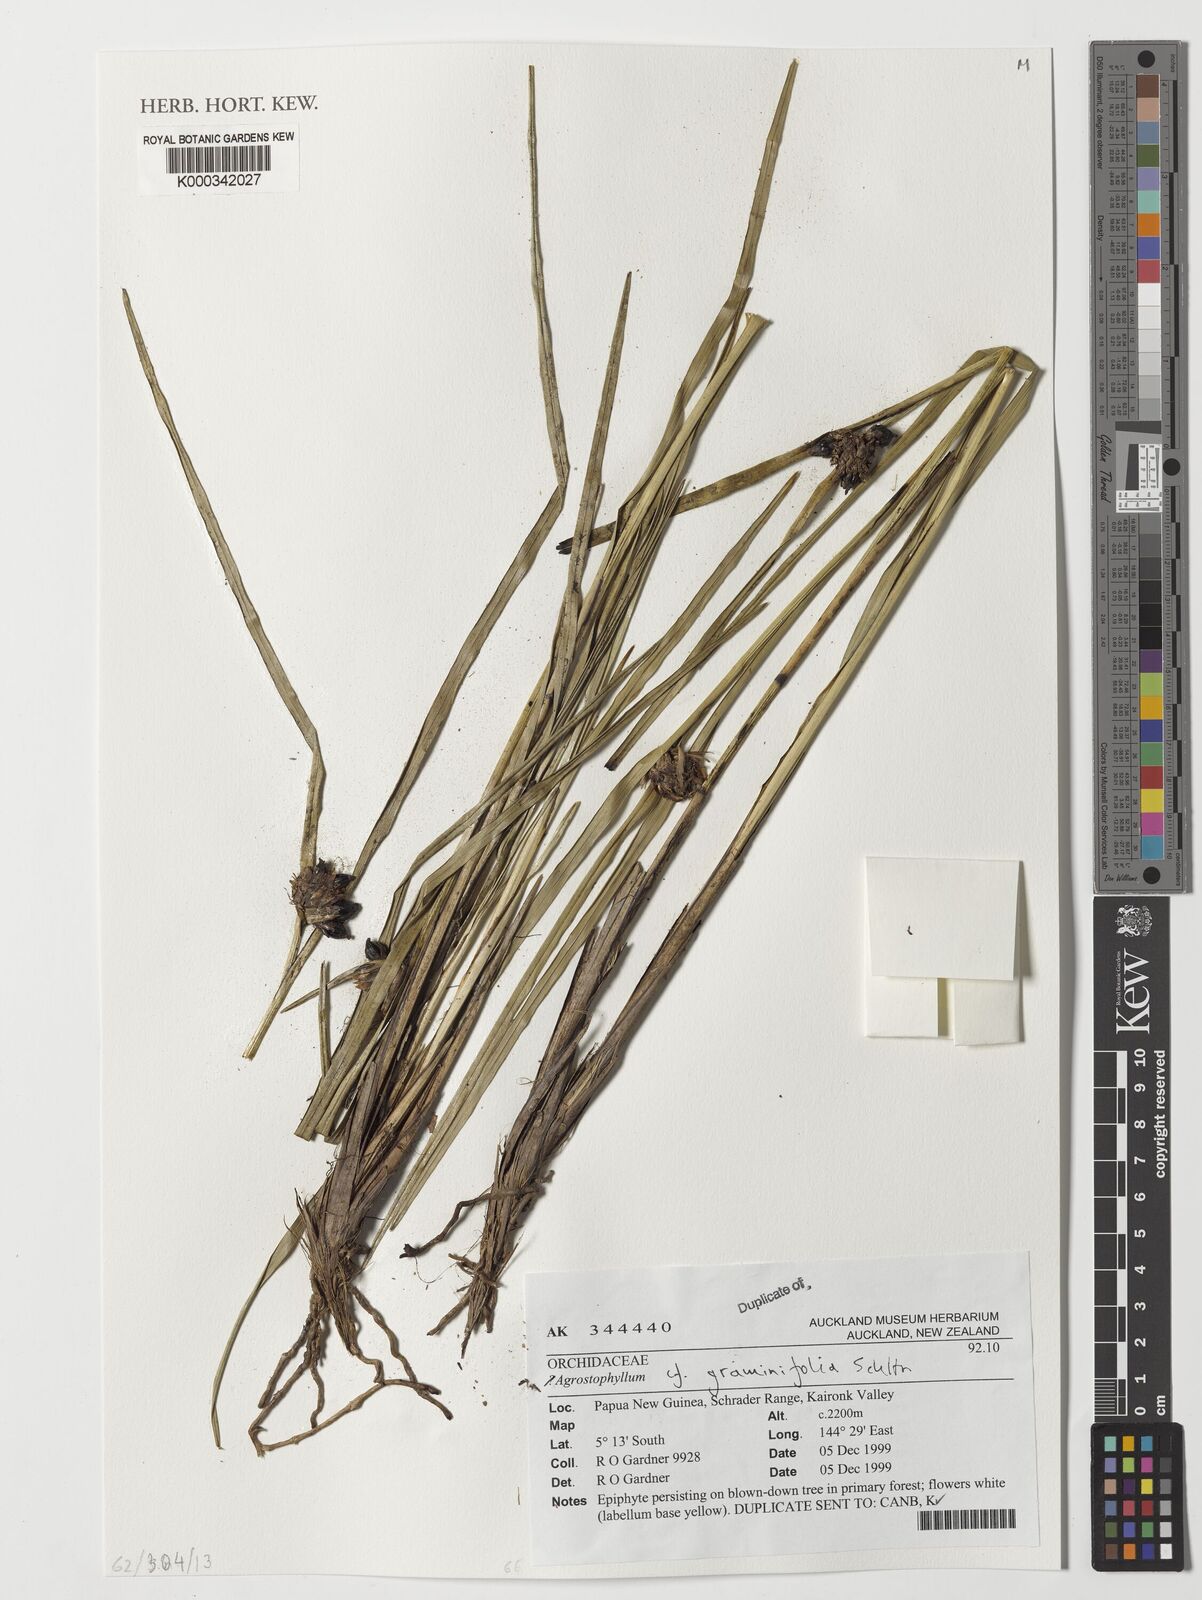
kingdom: Plantae
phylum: Tracheophyta
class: Liliopsida
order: Asparagales
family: Orchidaceae
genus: Agrostophyllum
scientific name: Agrostophyllum graminifolium
